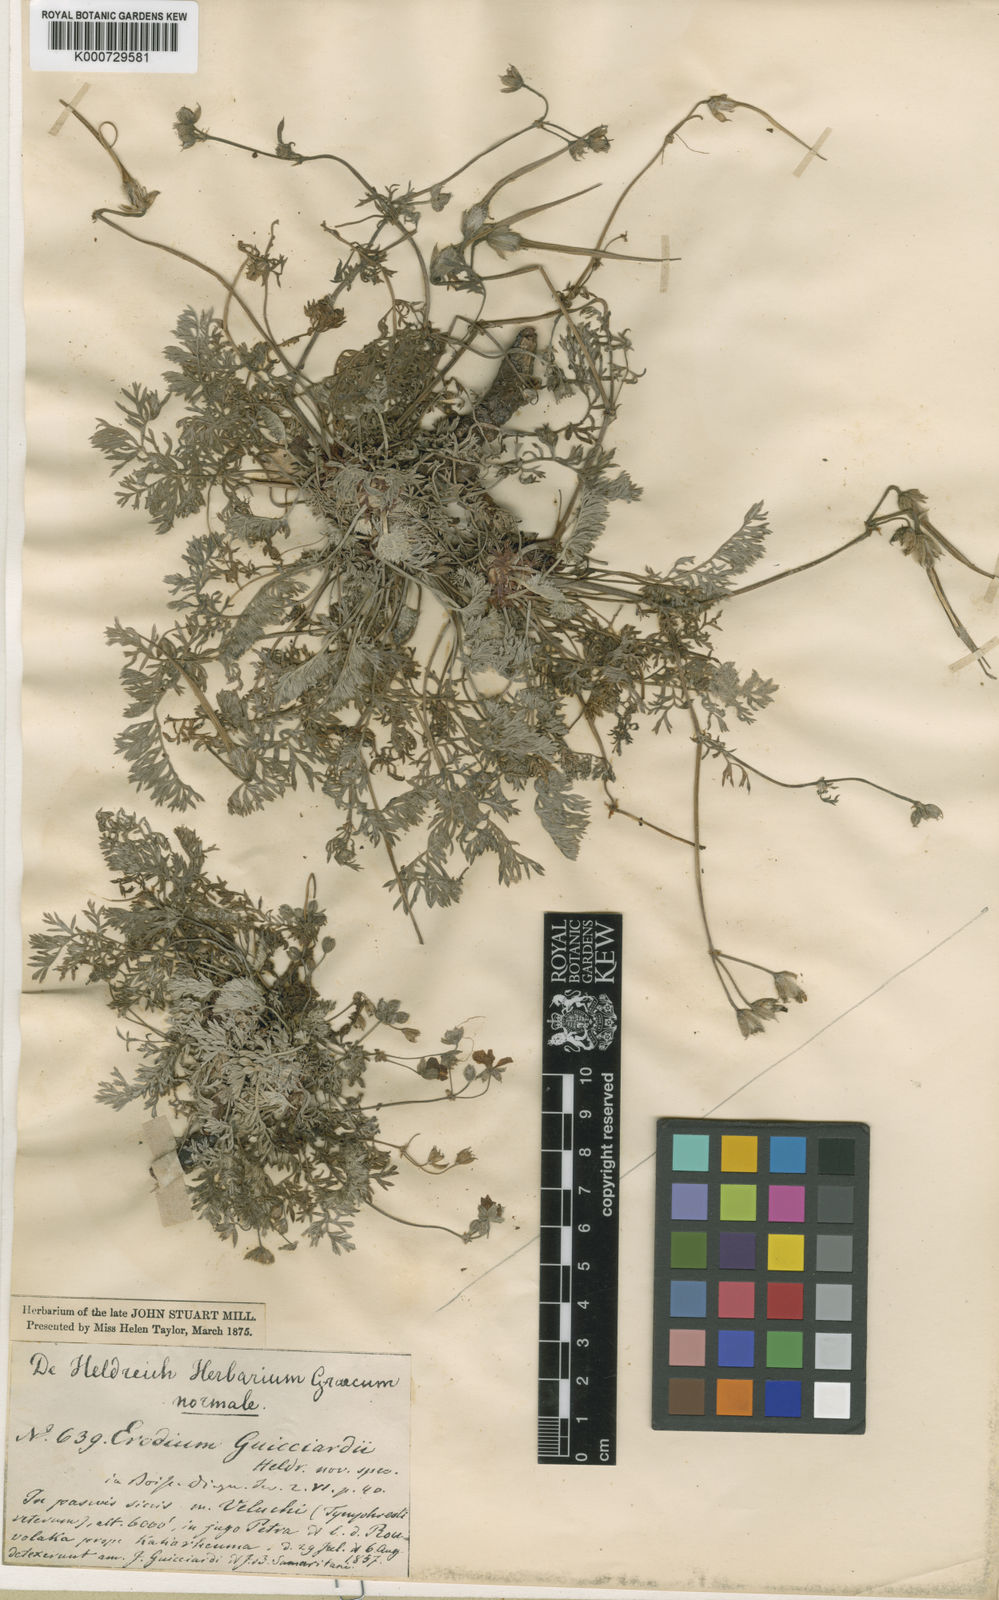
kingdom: Plantae
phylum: Tracheophyta
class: Magnoliopsida
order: Geraniales
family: Geraniaceae
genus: Erodium
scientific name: Erodium absinthoides
